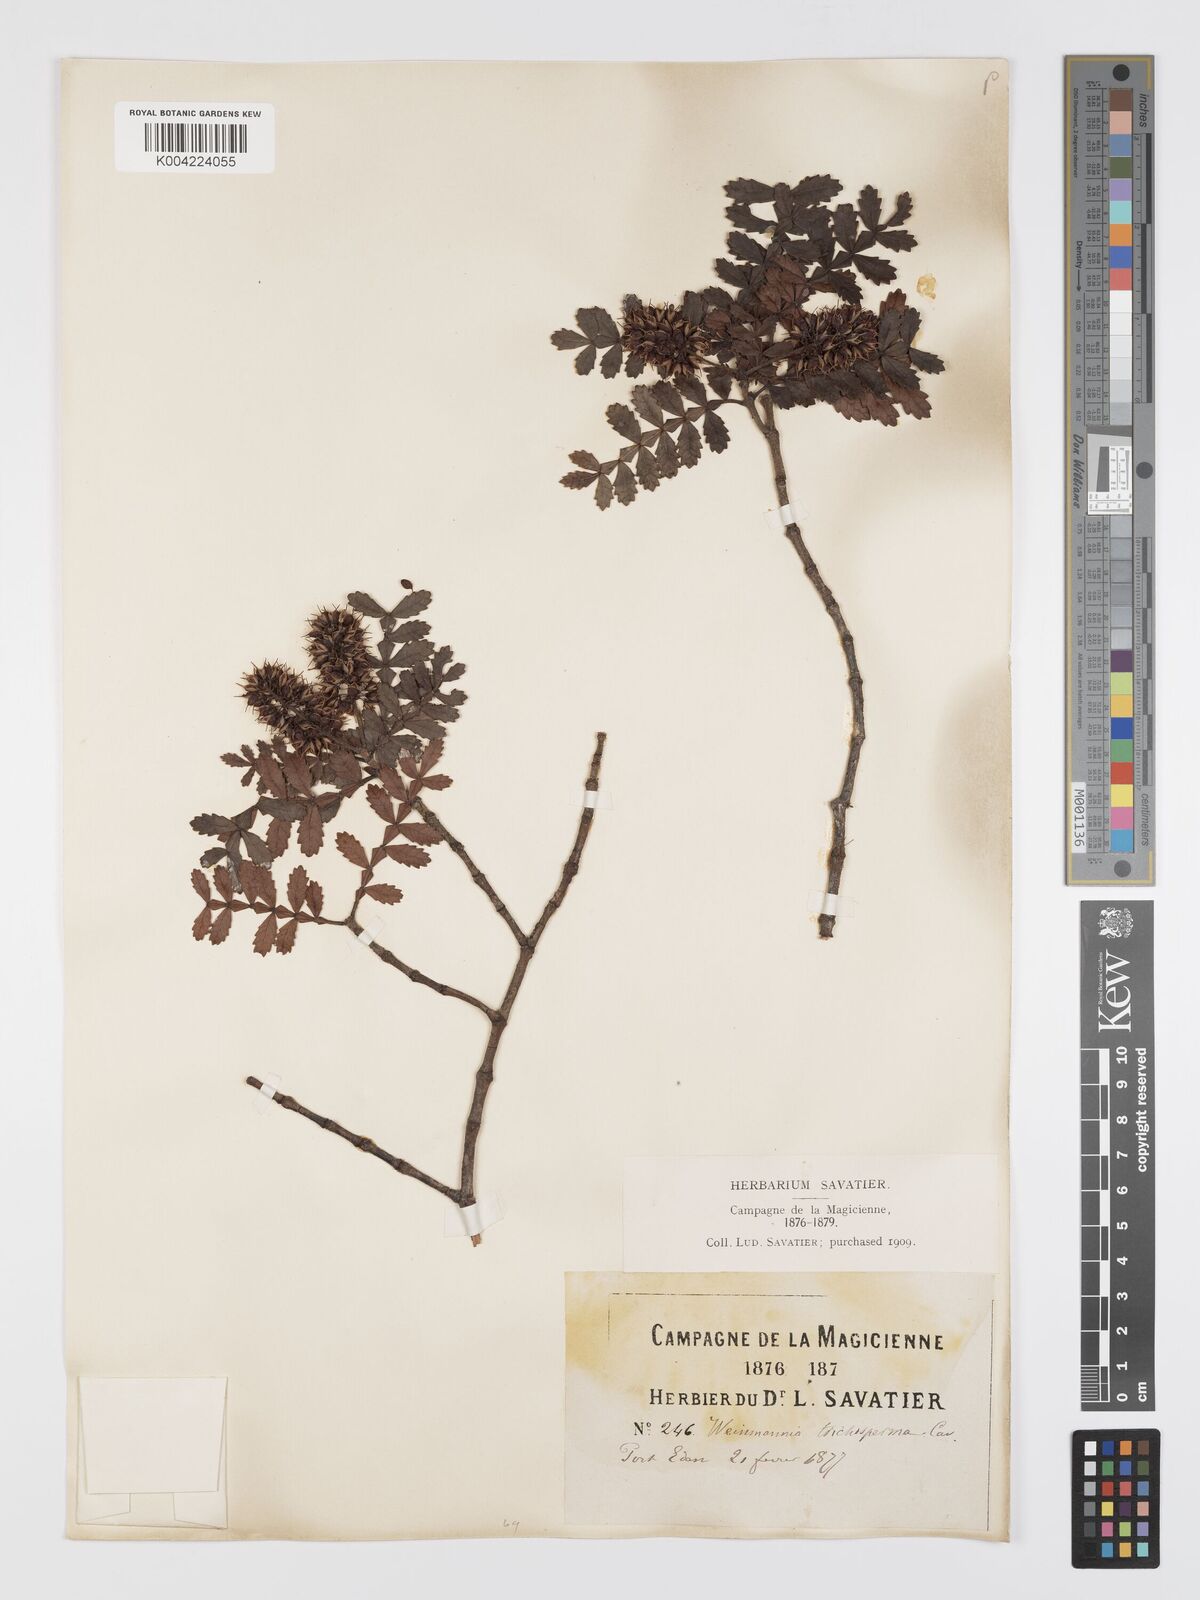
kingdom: Plantae
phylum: Tracheophyta
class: Magnoliopsida
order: Oxalidales
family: Cunoniaceae
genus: Weinmannia
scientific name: Weinmannia trichosperma
